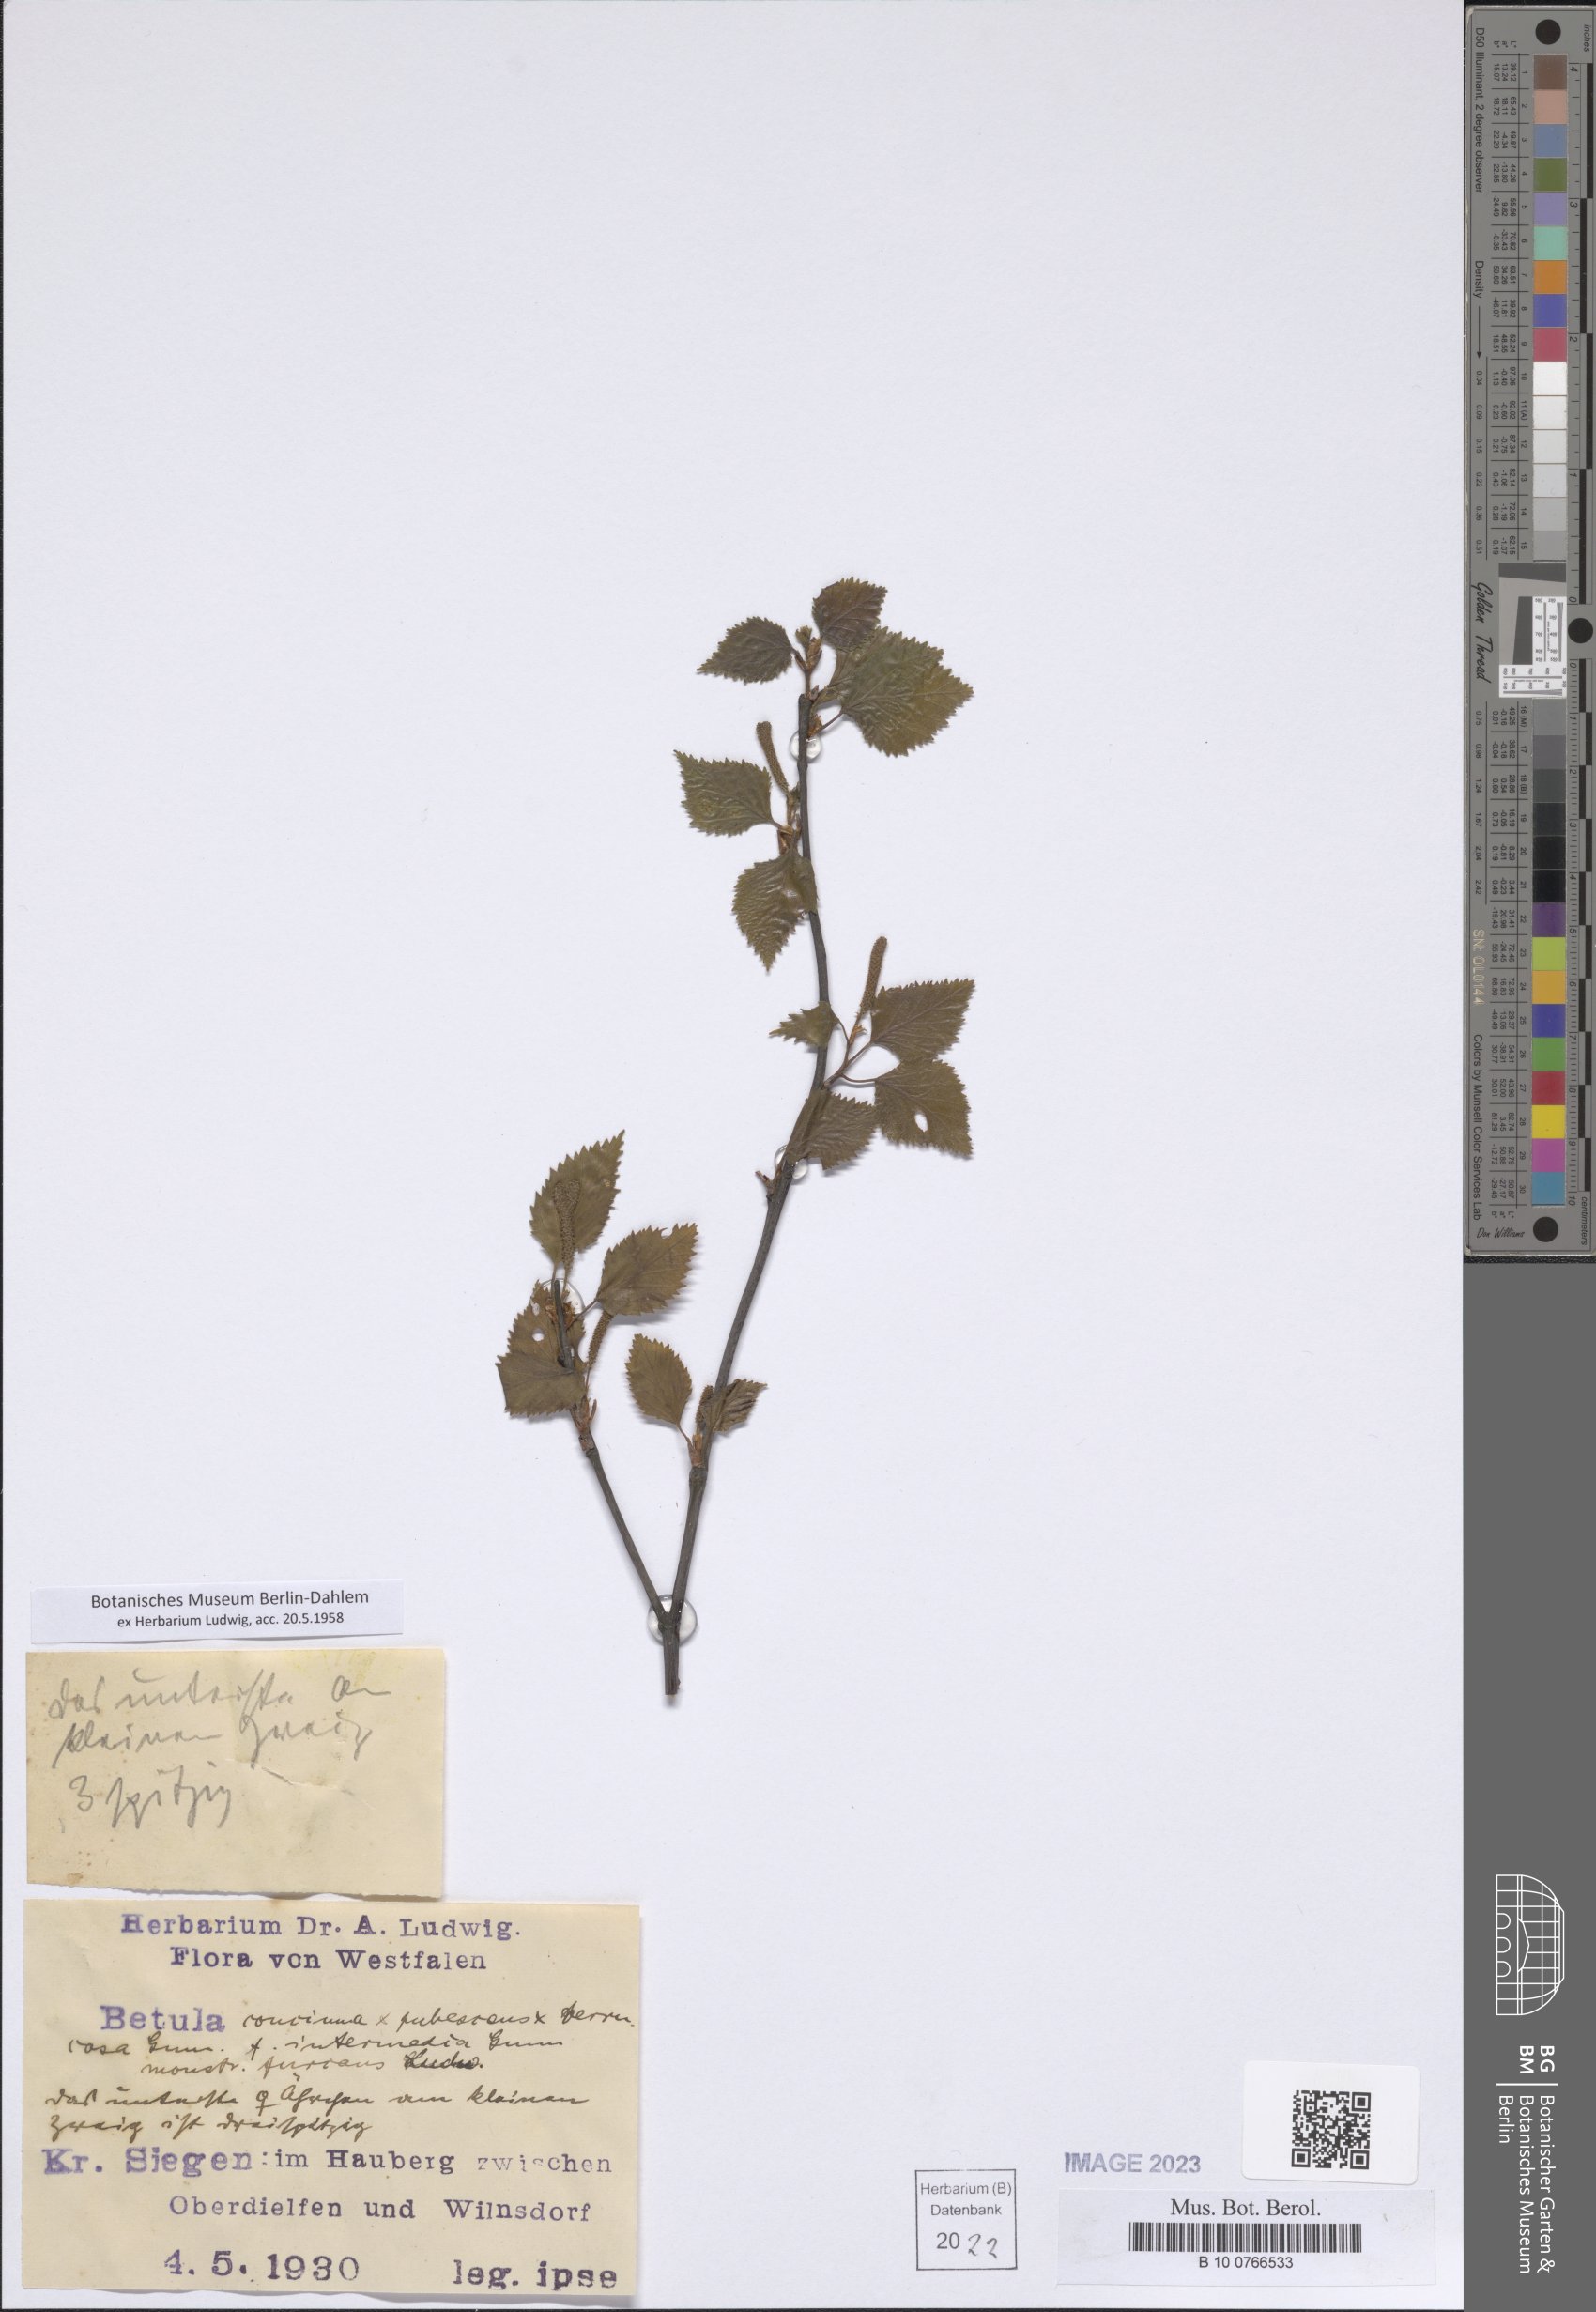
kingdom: Plantae
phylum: Tracheophyta
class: Magnoliopsida
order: Fagales
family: Betulaceae
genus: Betula
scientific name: Betula
